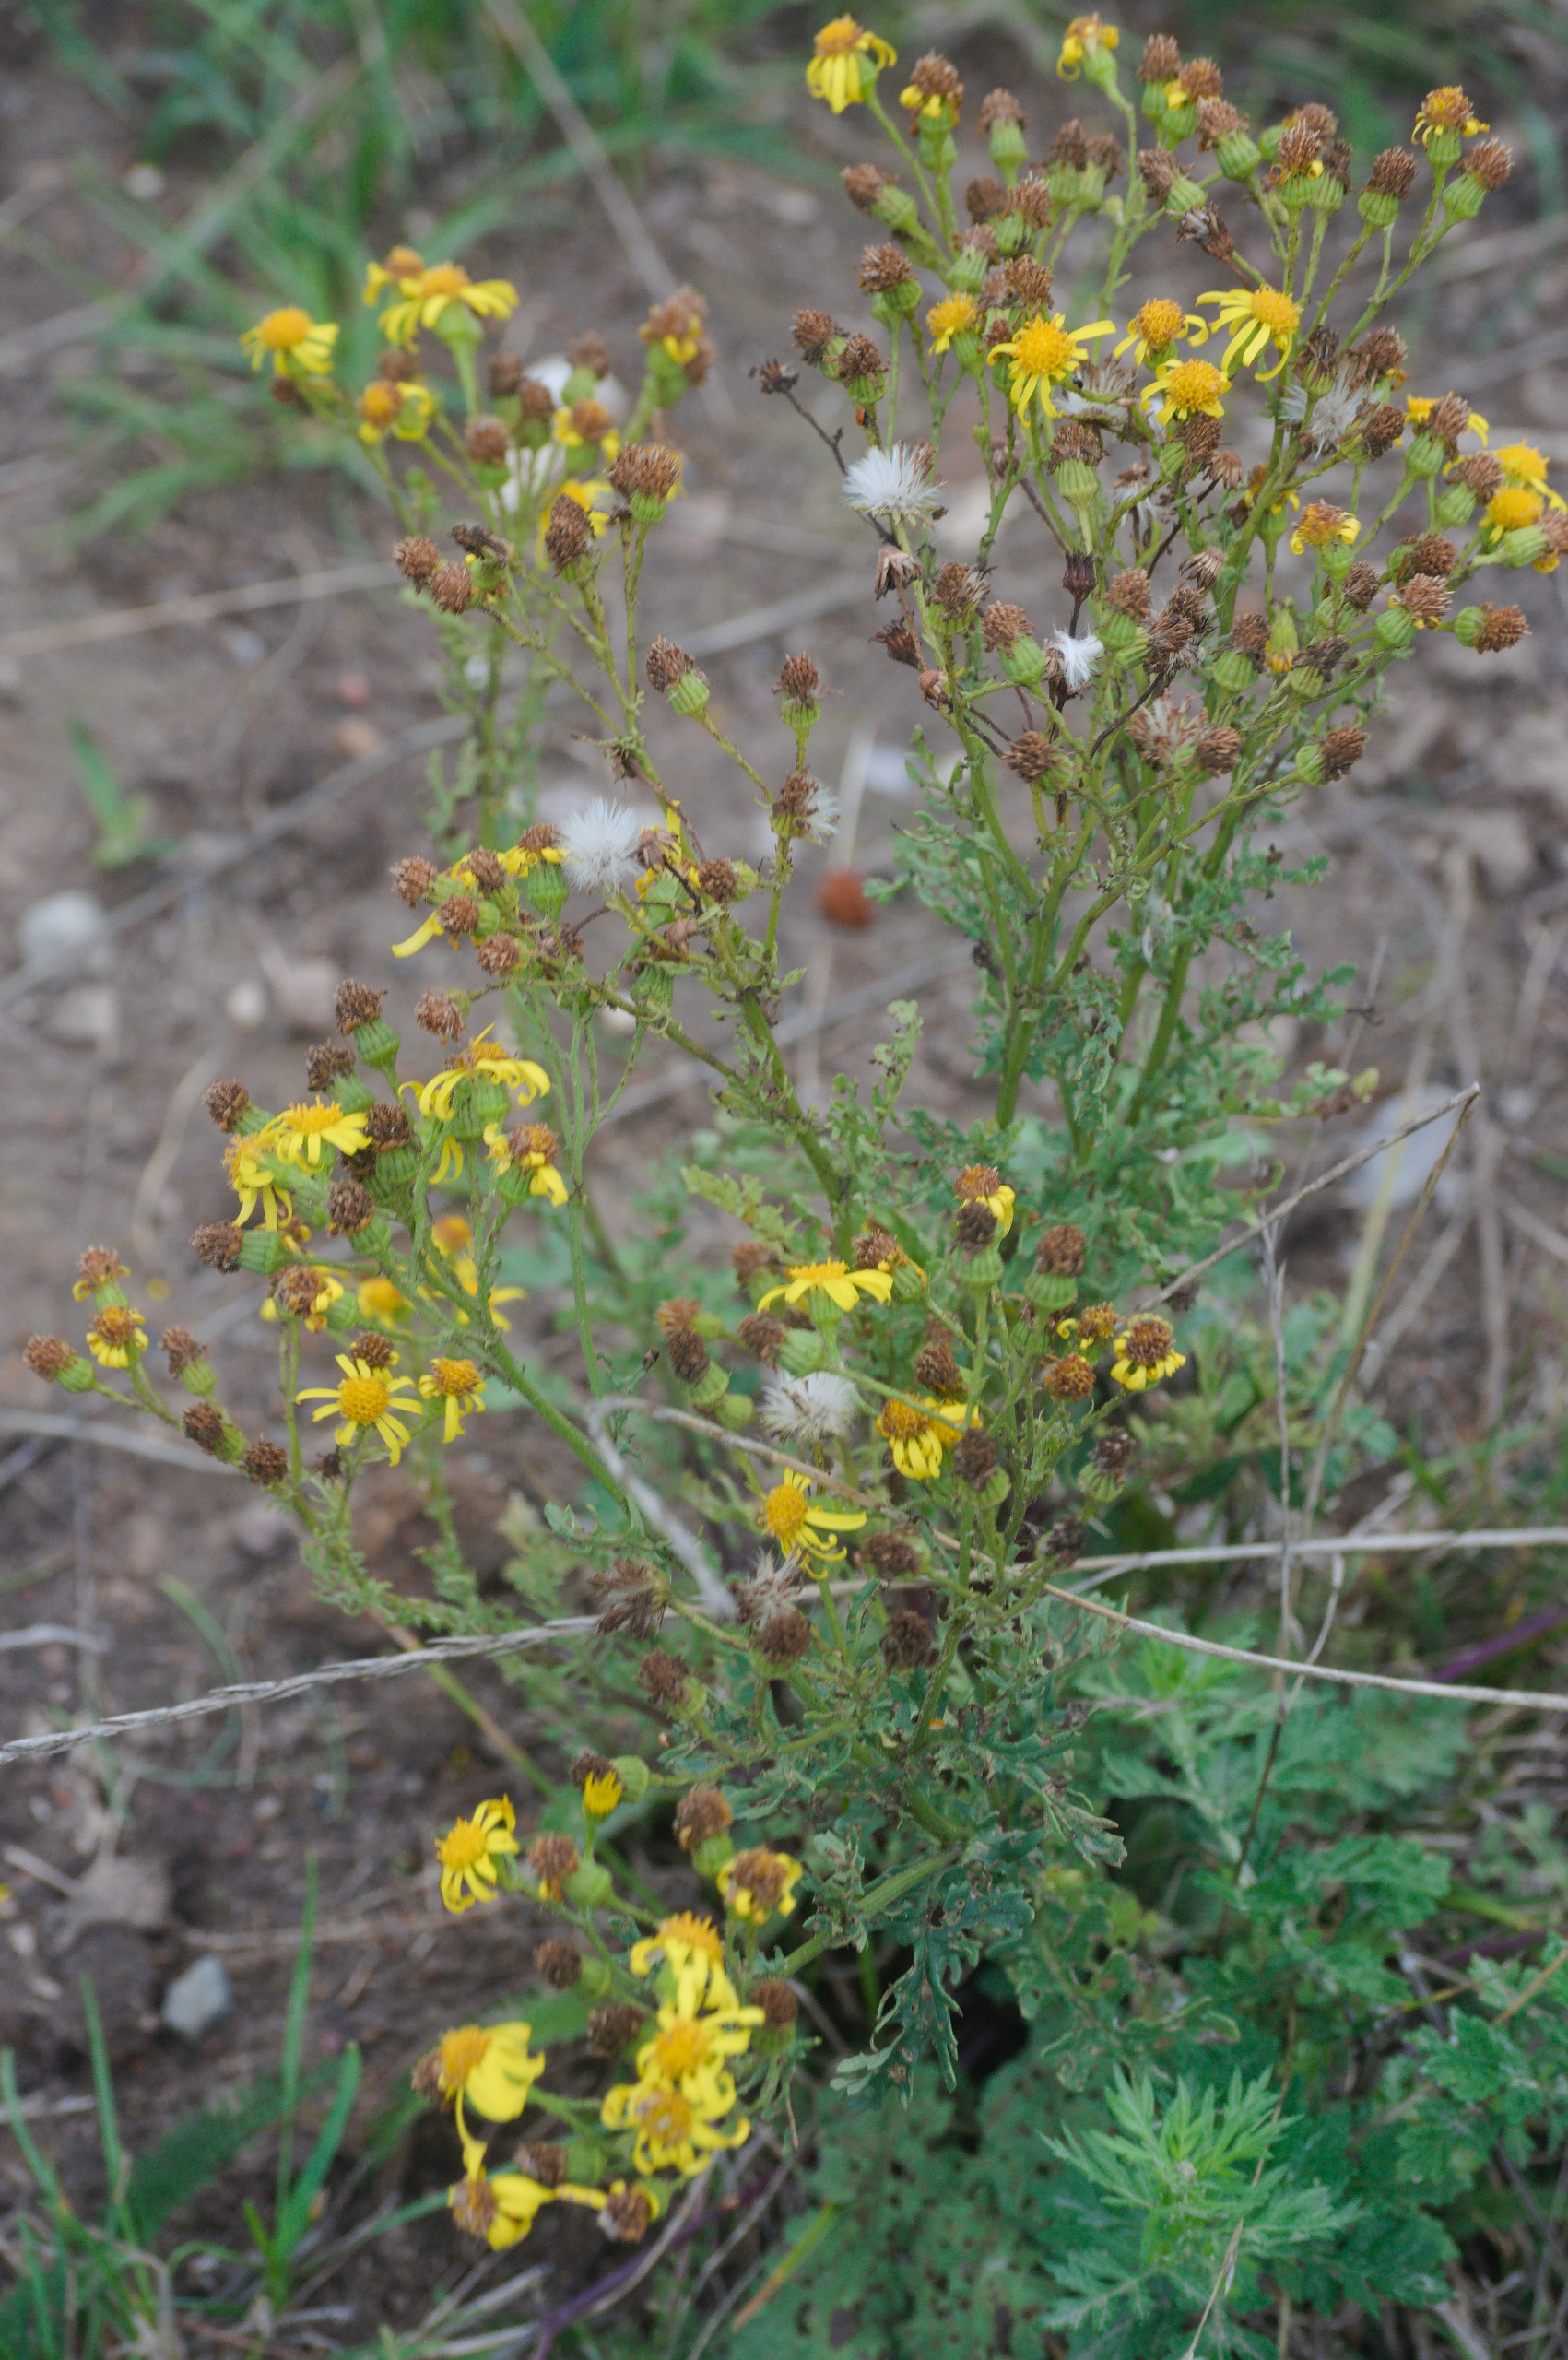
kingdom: Plantae
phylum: Tracheophyta
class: Magnoliopsida
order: Asterales
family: Asteraceae
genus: Jacobaea
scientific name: Jacobaea vulgaris
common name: Eng-brandbæger
